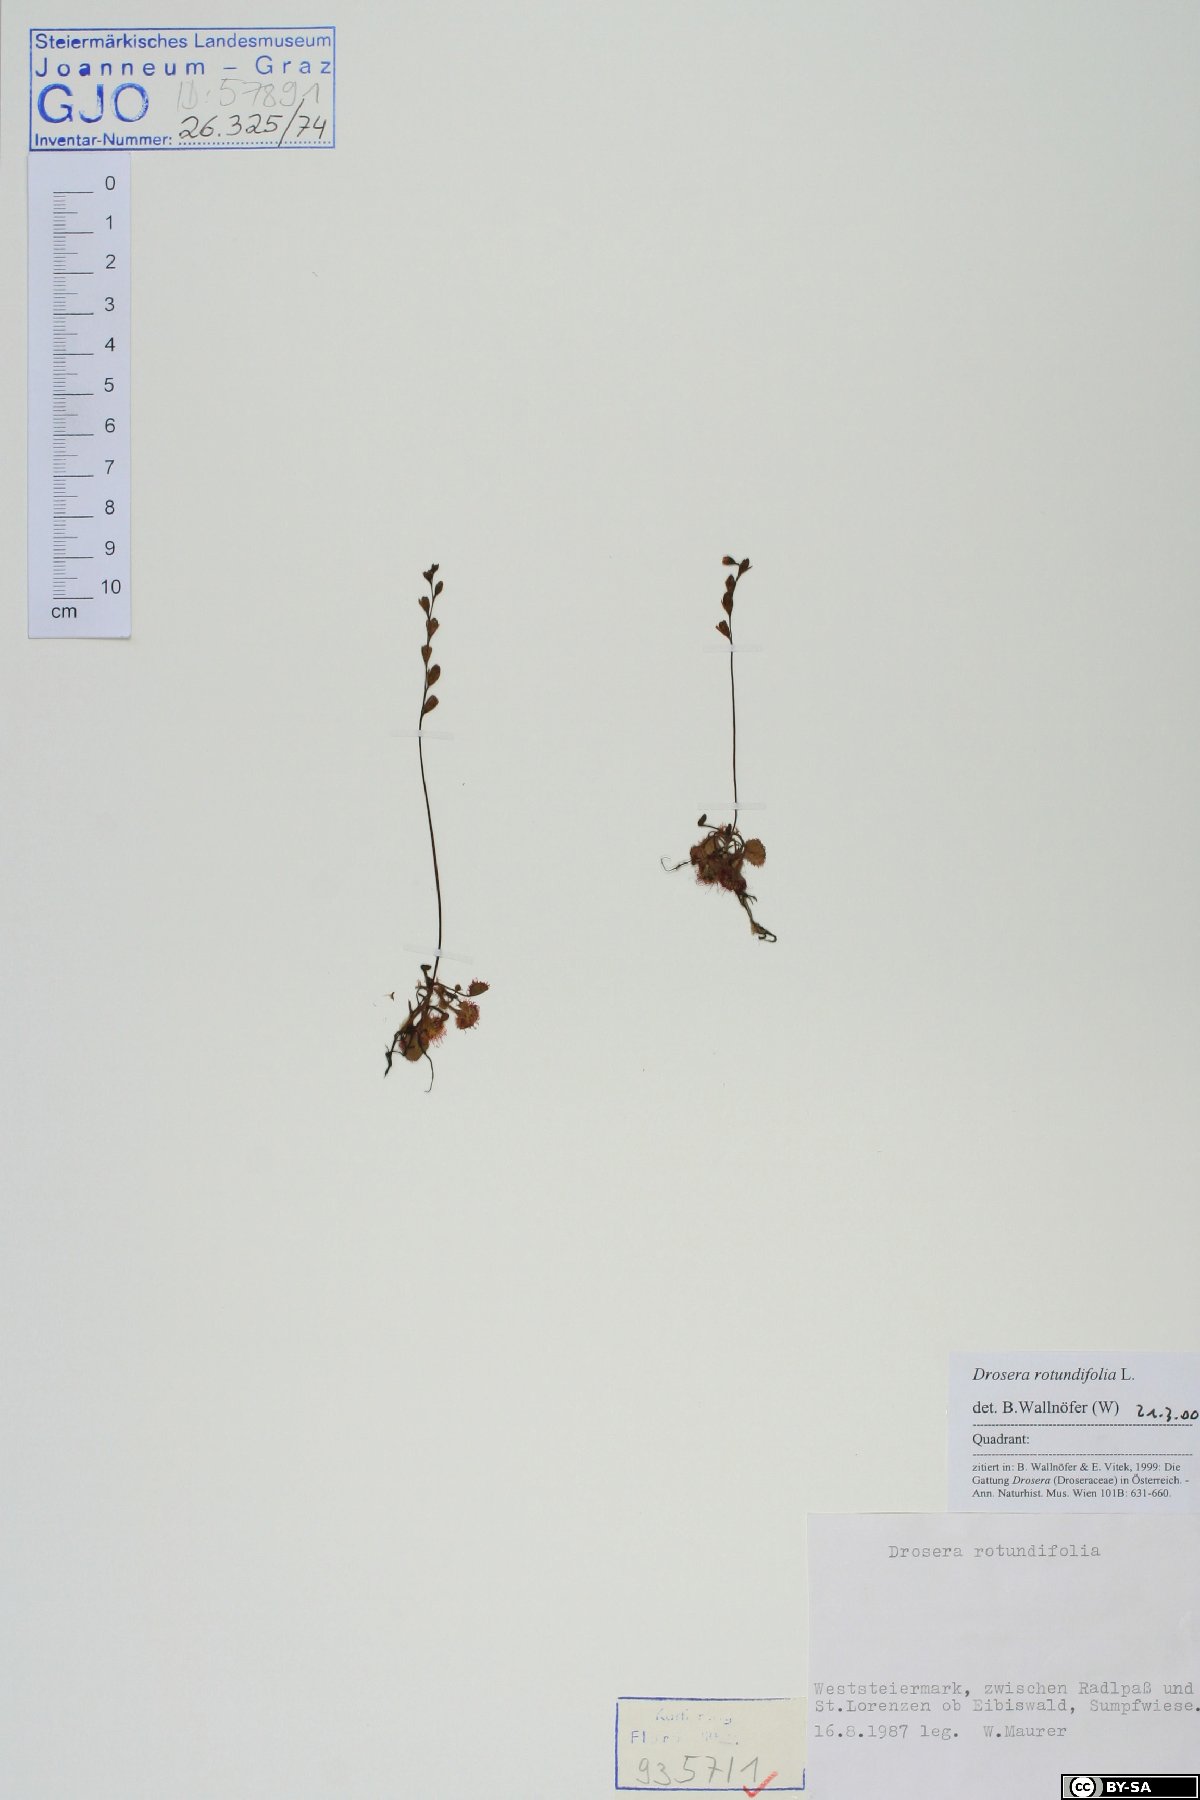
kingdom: Plantae
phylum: Tracheophyta
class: Magnoliopsida
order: Caryophyllales
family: Droseraceae
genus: Drosera
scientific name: Drosera rotundifolia
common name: Round-leaved sundew
